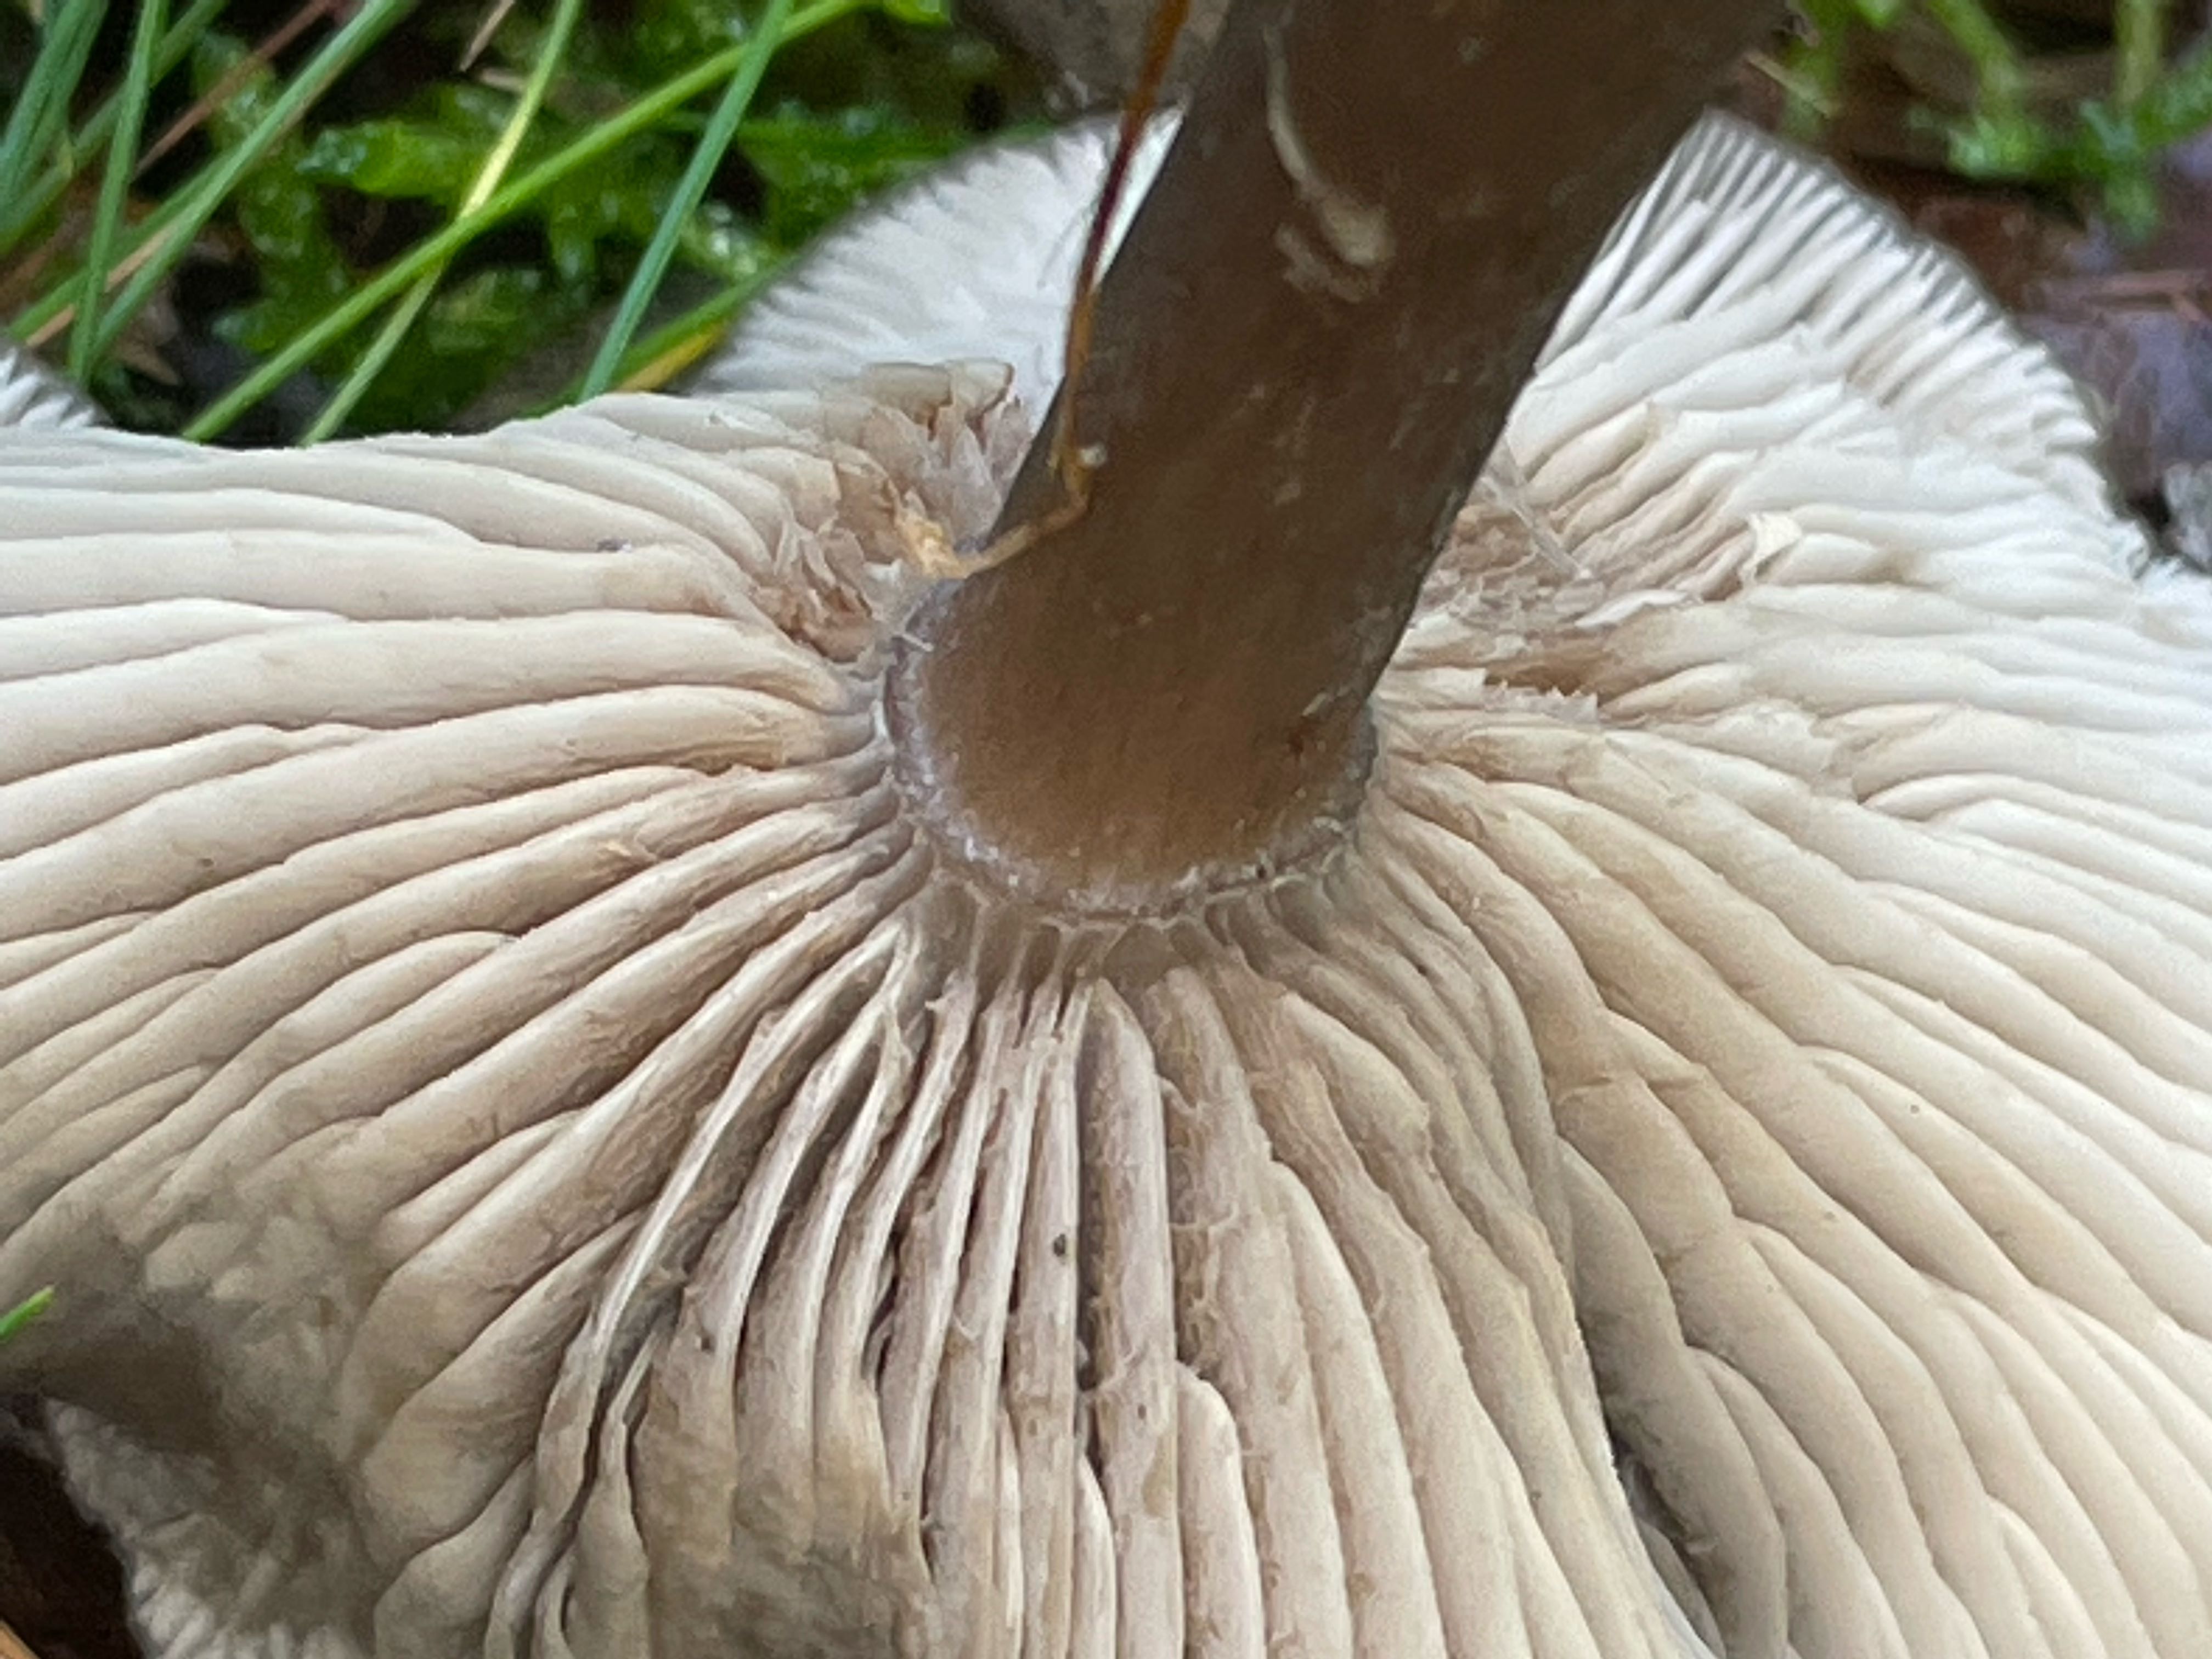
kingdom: Fungi
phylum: Basidiomycota
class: Agaricomycetes
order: Agaricales
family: Pseudoclitocybaceae
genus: Pseudoclitocybe
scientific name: Pseudoclitocybe cyathiformis
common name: almindelig bægertragthat
